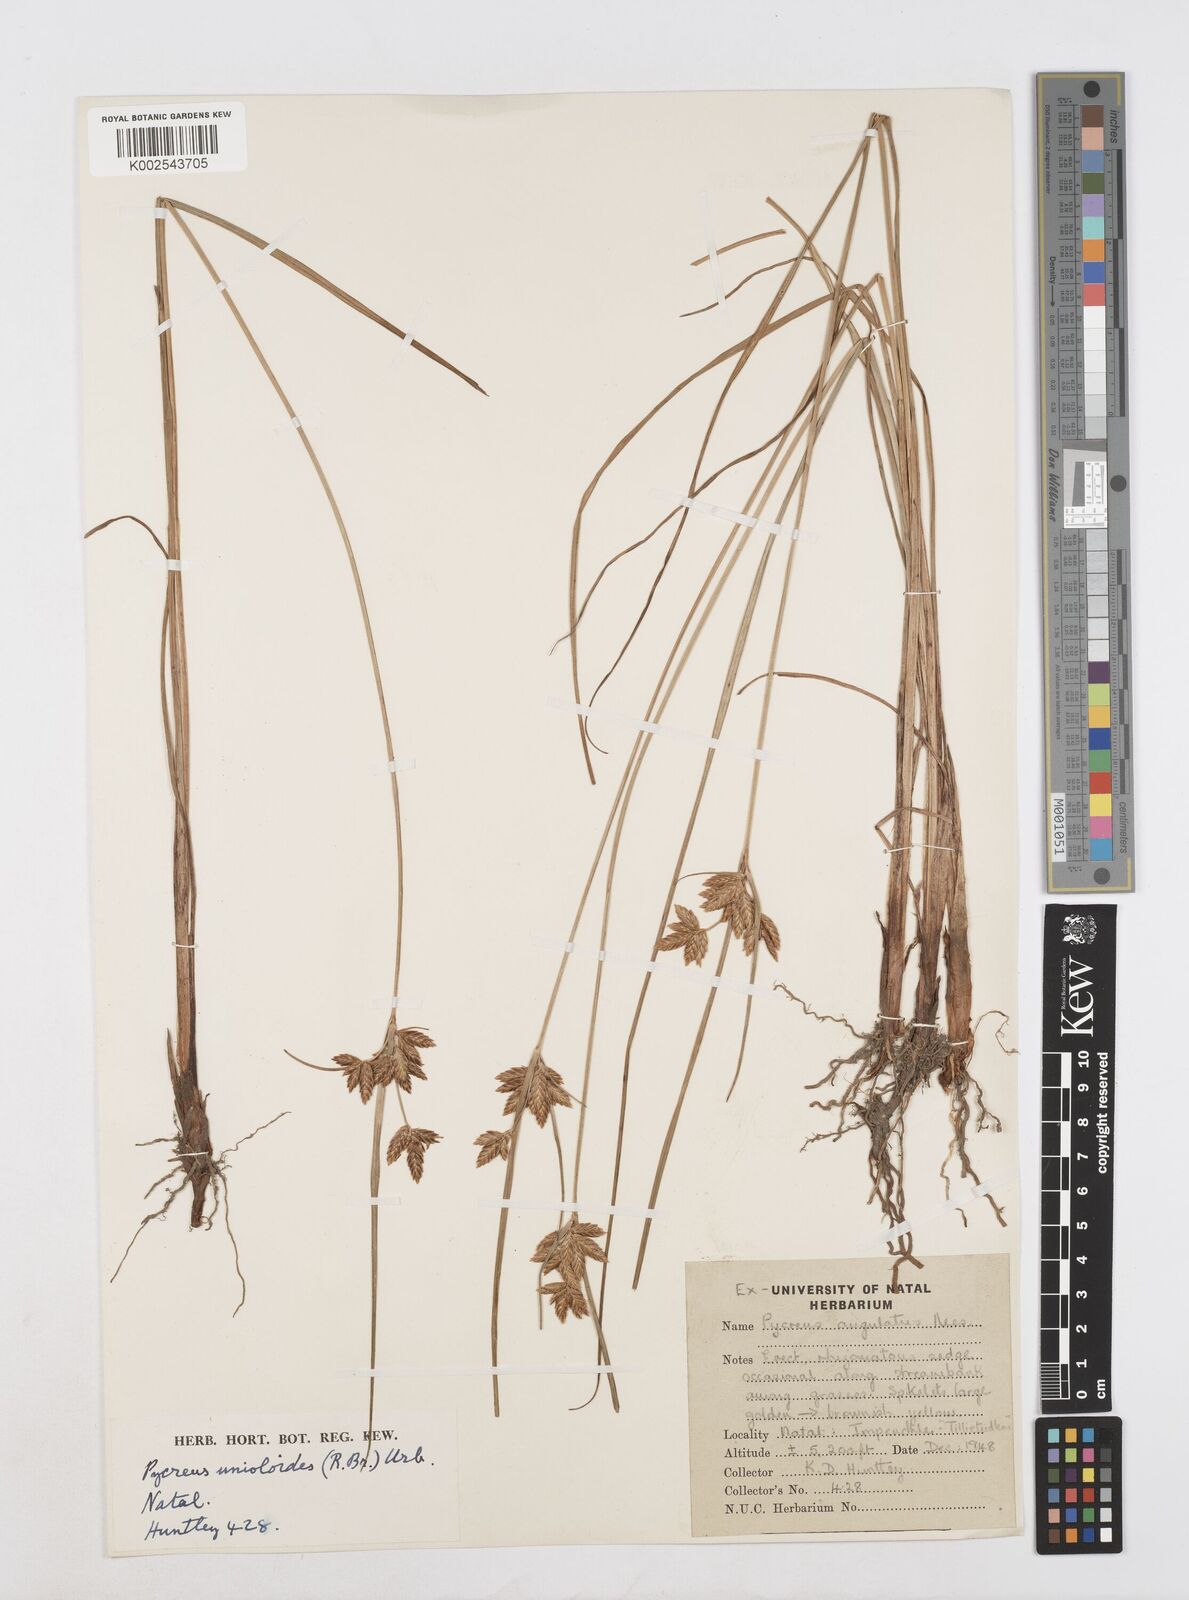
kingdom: Plantae
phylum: Tracheophyta
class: Liliopsida
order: Poales
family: Cyperaceae
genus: Cyperus
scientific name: Cyperus unioloides
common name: Uniola flatsedge
